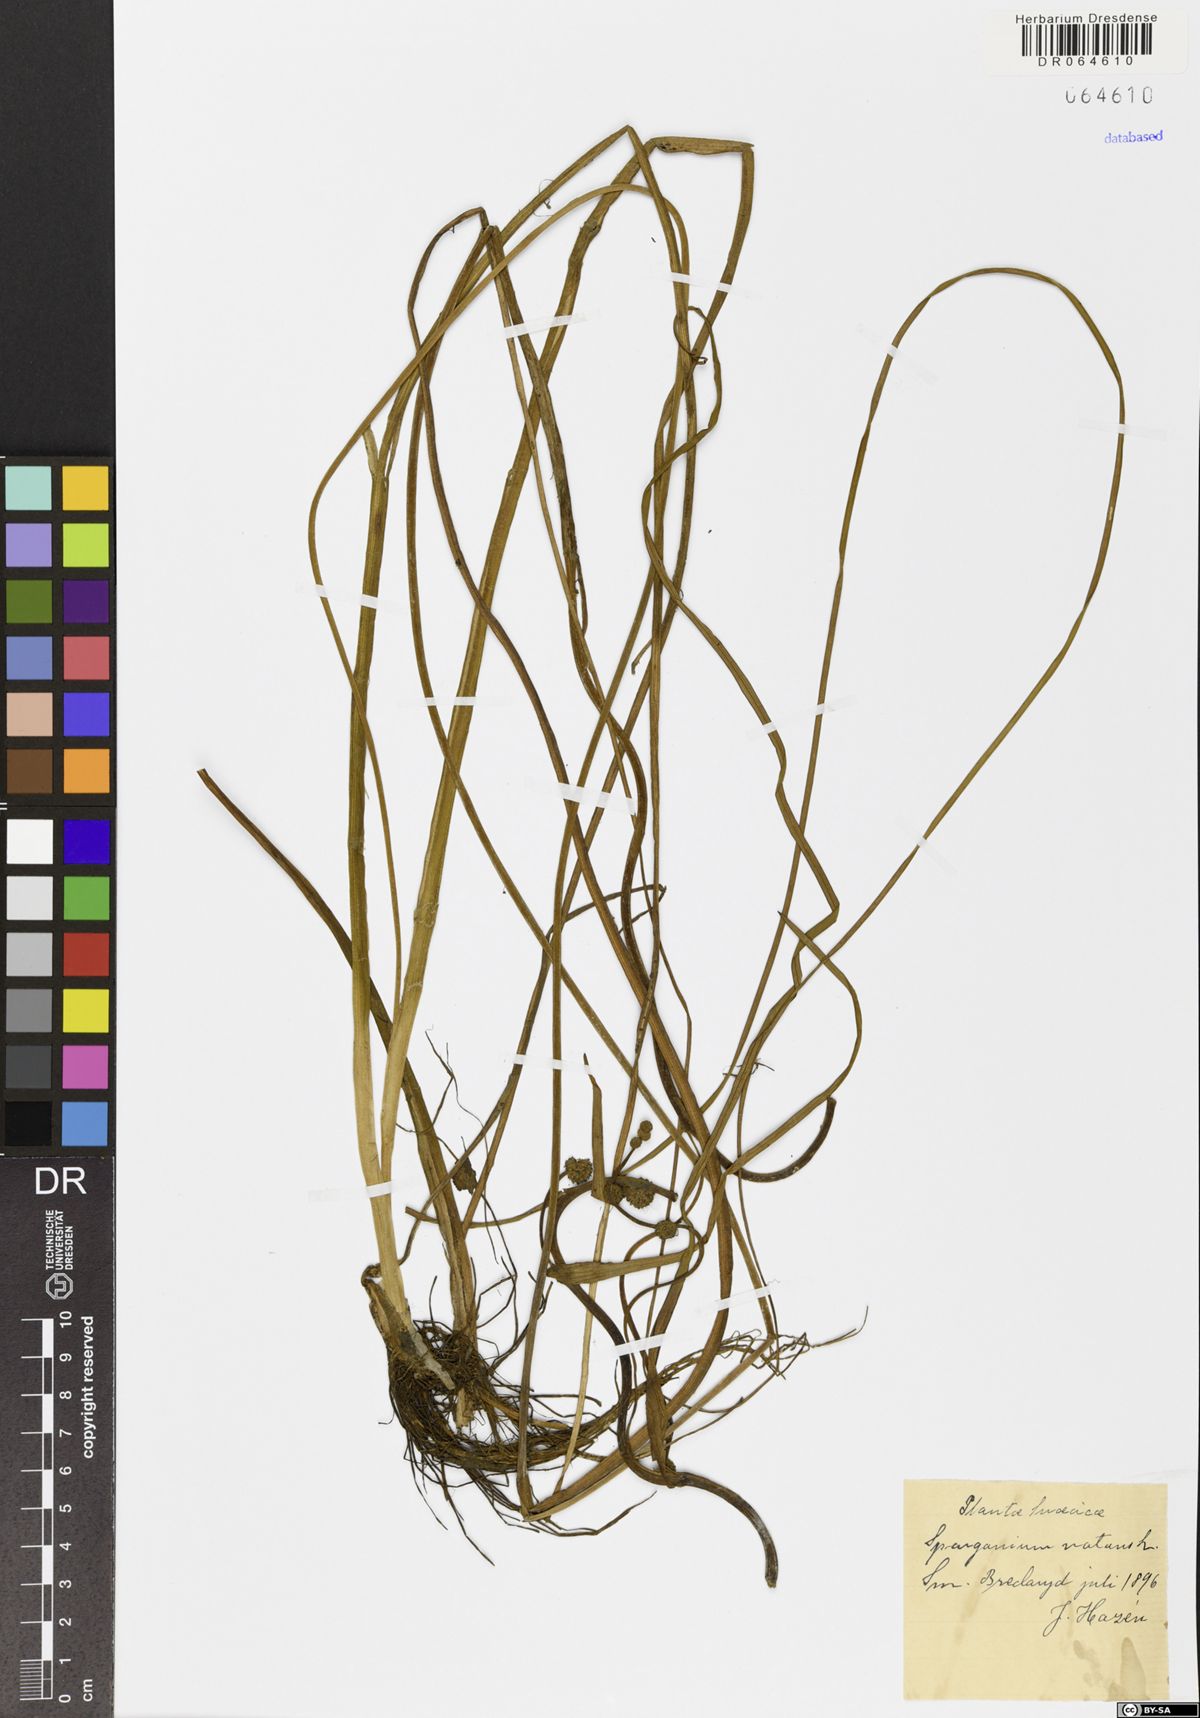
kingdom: Plantae
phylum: Tracheophyta
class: Liliopsida
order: Poales
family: Typhaceae
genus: Sparganium
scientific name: Sparganium natans
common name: Least bur-reed
